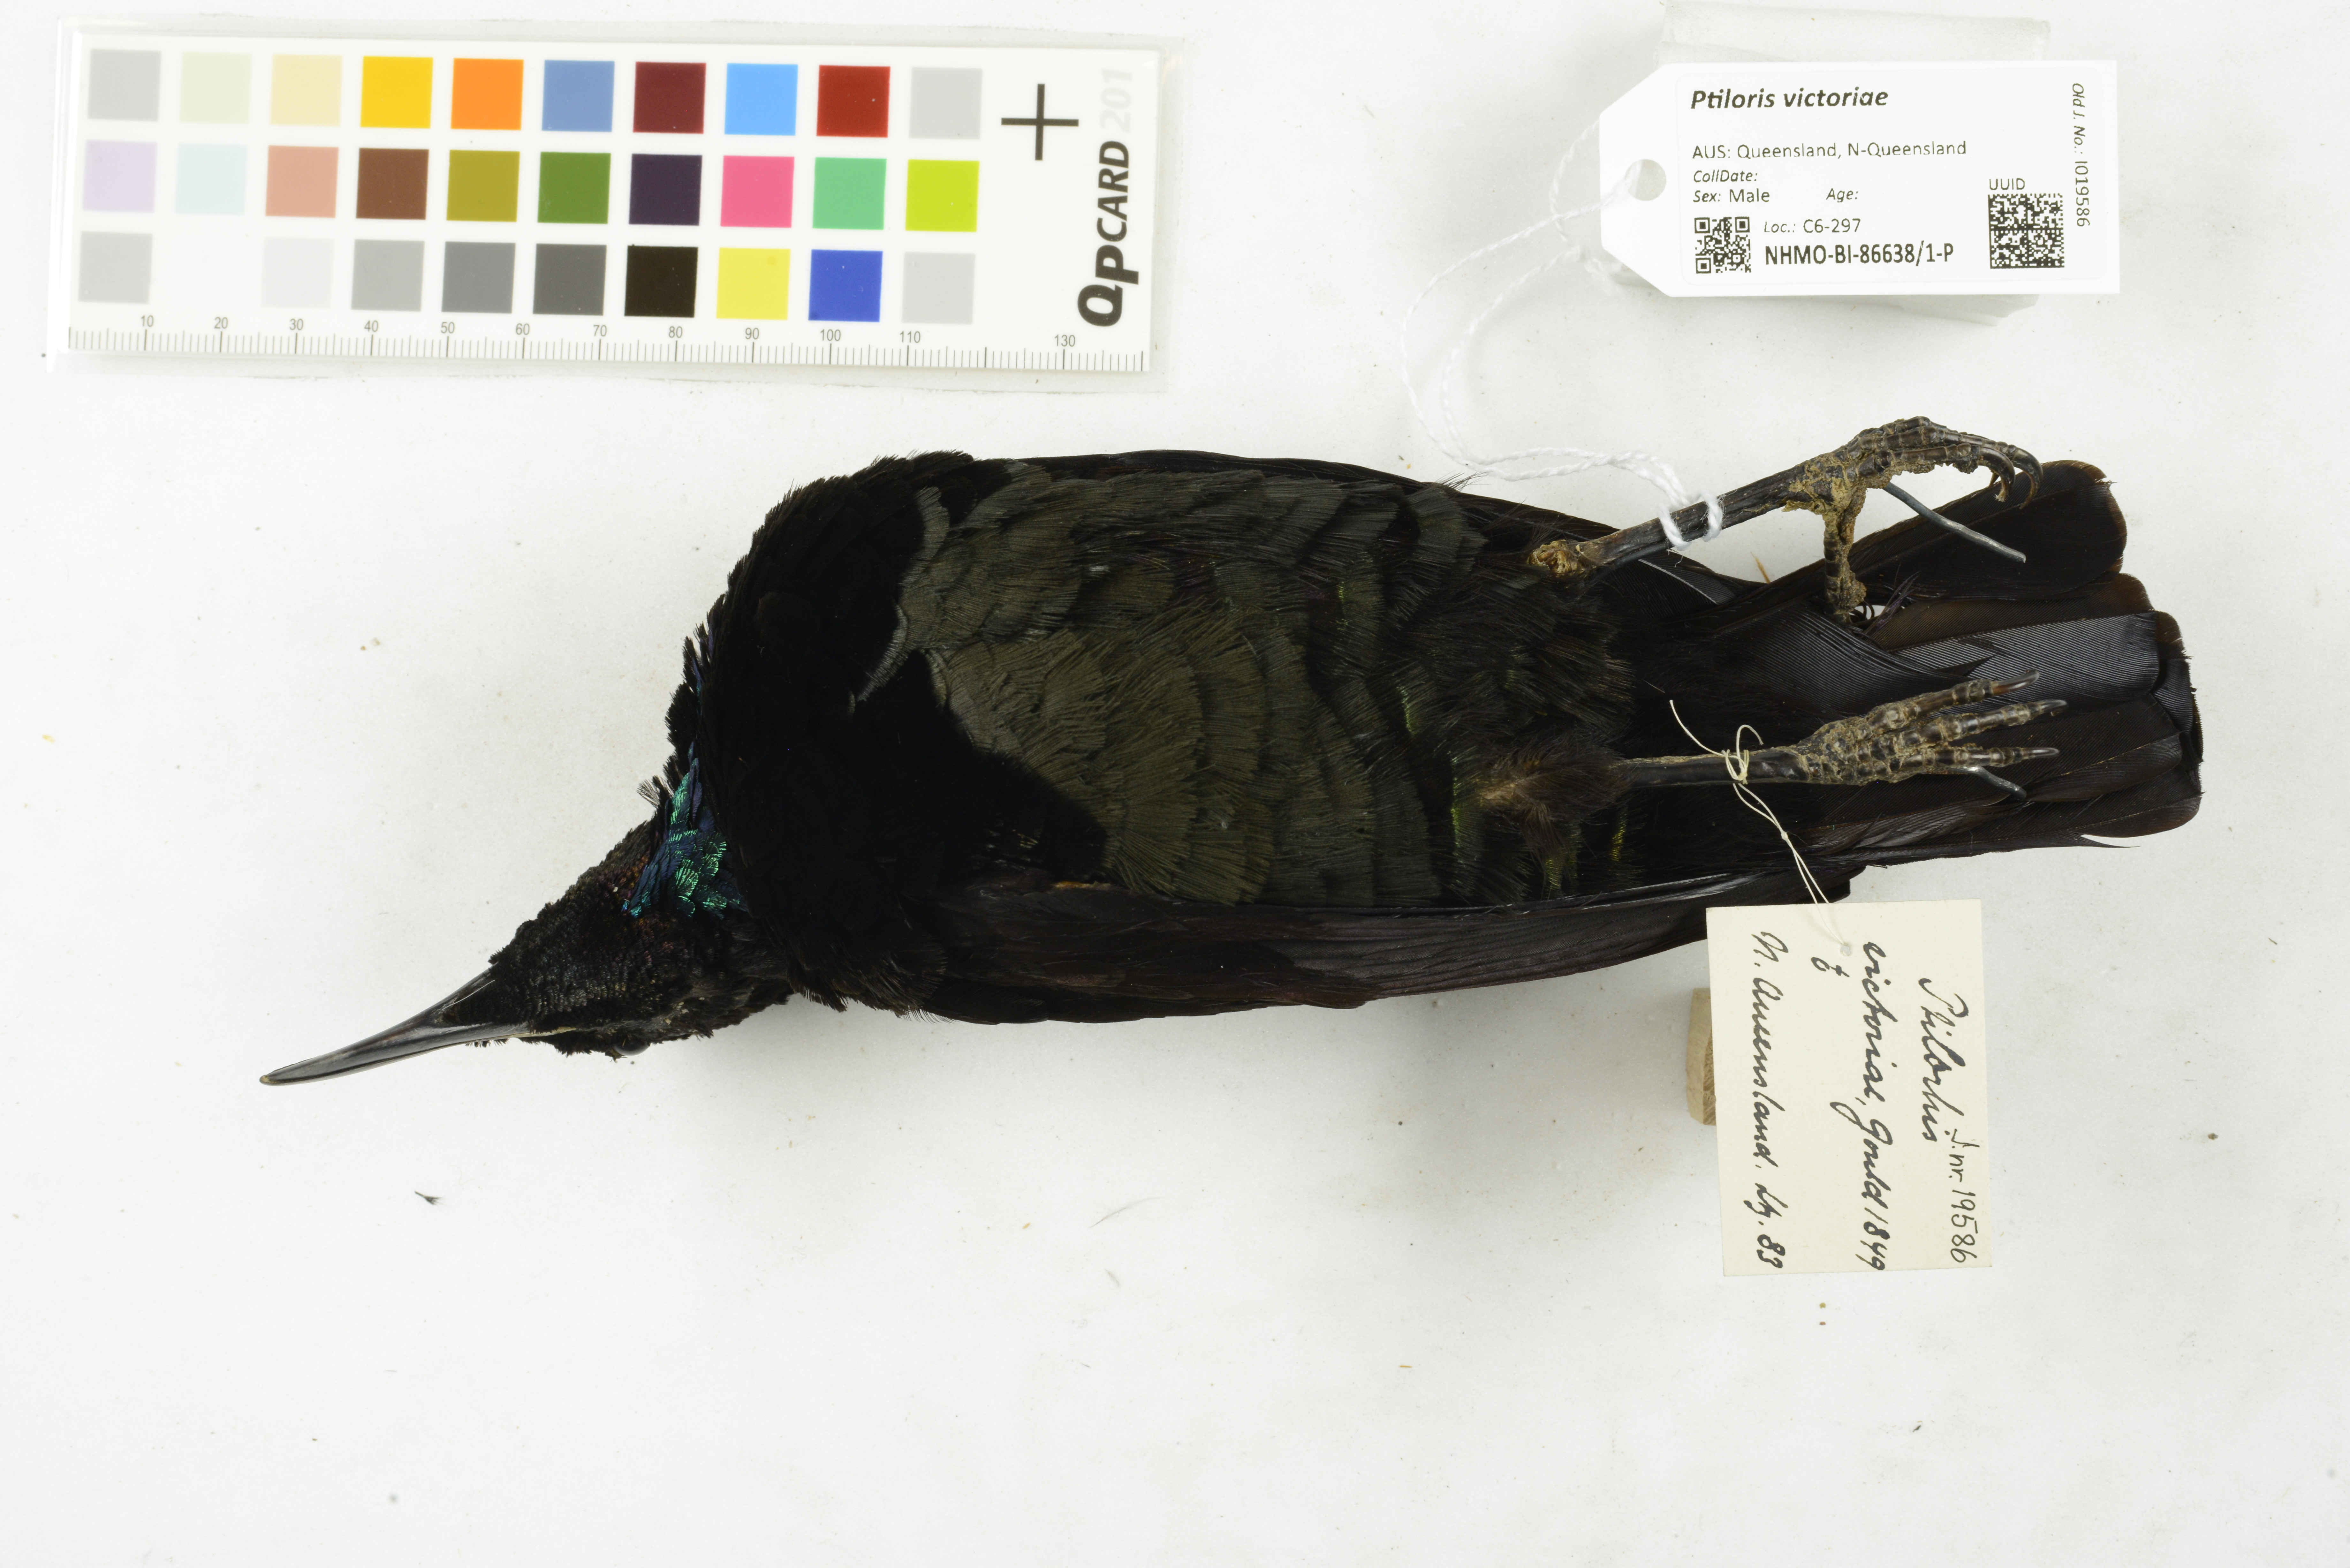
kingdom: Animalia
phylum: Chordata
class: Aves
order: Passeriformes
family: Paradisaeidae
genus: Ptiloris
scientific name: Ptiloris victoriae
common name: Victoria's riflebird
